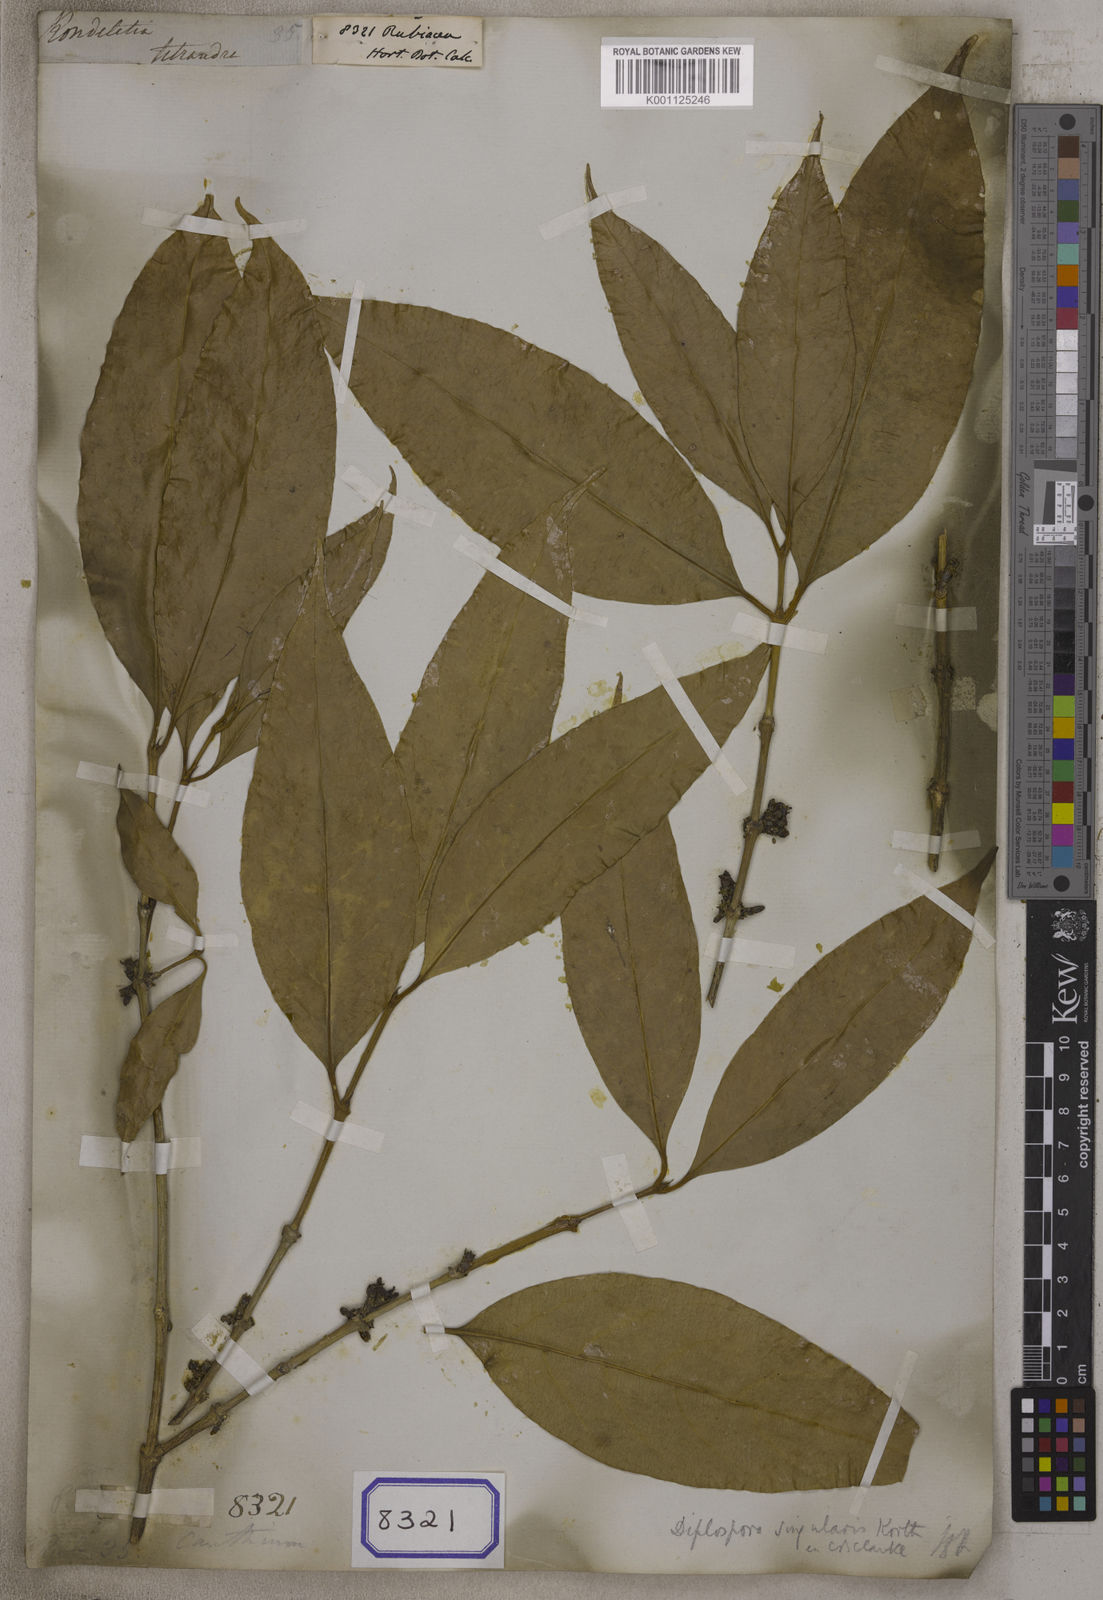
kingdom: Plantae
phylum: Tracheophyta
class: Magnoliopsida
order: Gentianales
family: Rubiaceae
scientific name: Rubiaceae
